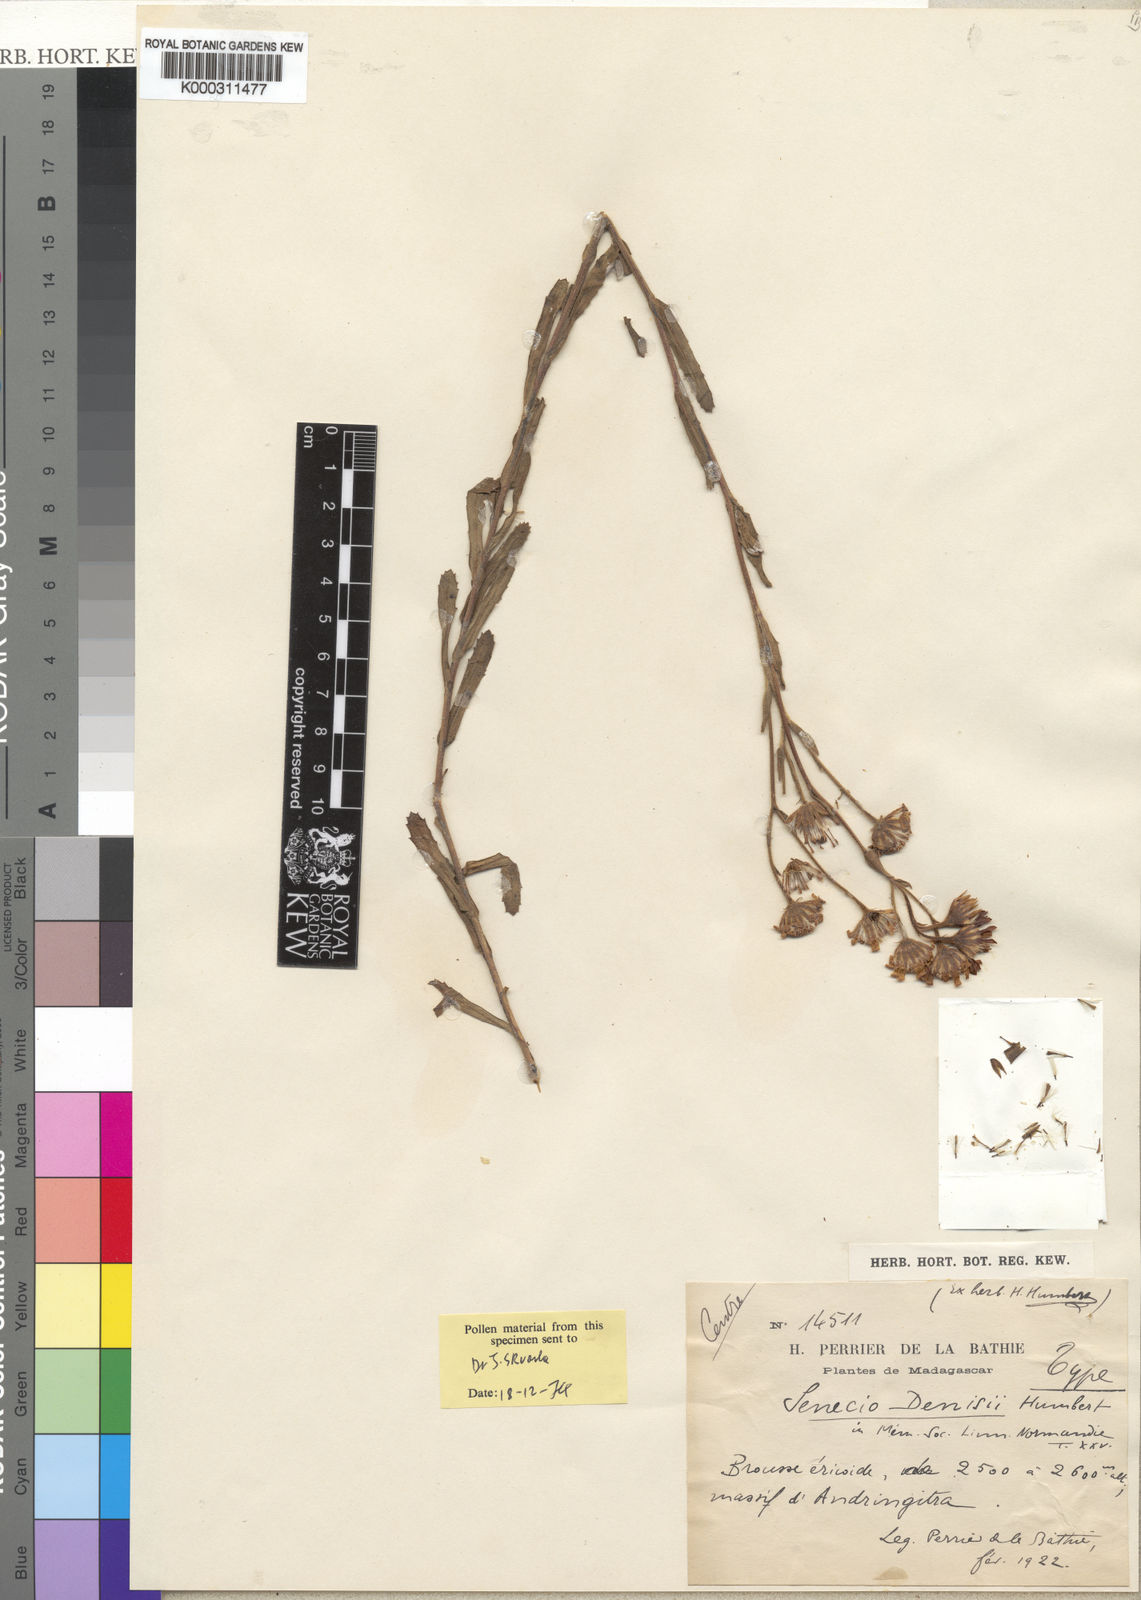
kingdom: Plantae
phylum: Tracheophyta
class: Magnoliopsida
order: Asterales
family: Asteraceae
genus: Senecio
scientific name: Senecio denisii
